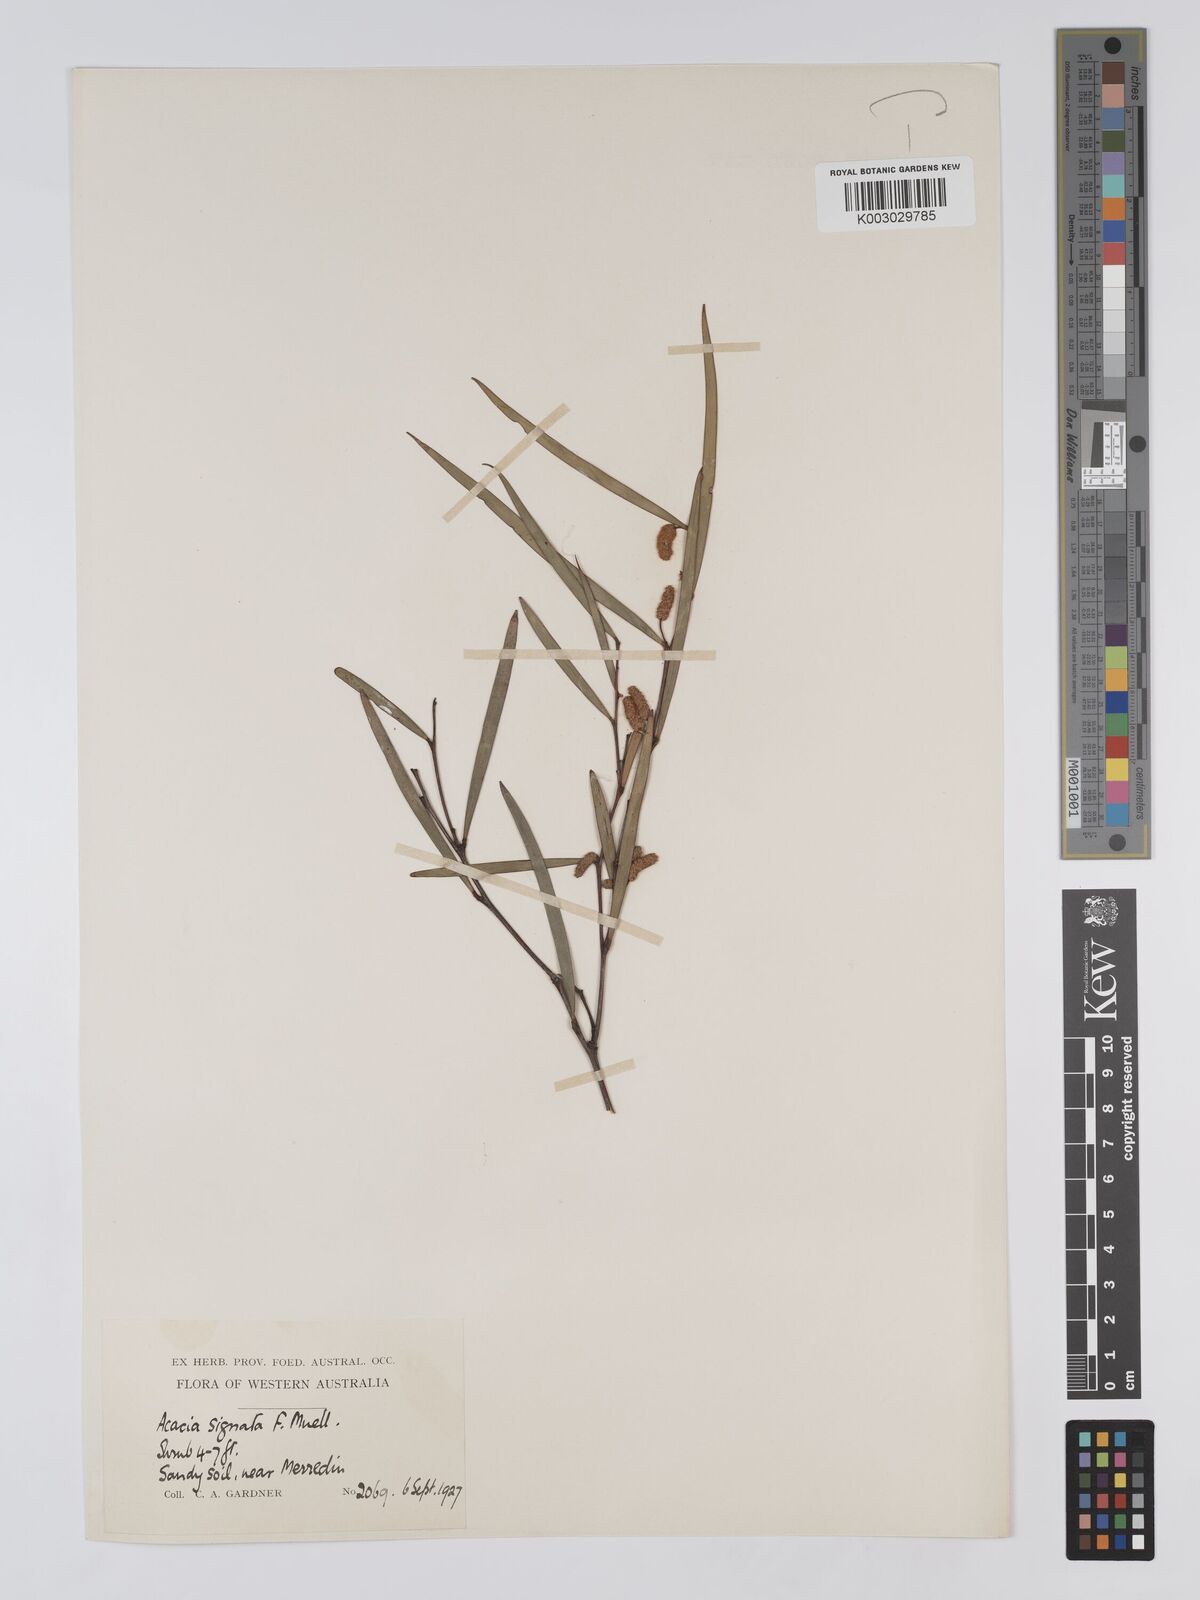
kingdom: Plantae
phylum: Tracheophyta
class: Magnoliopsida
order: Fabales
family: Fabaceae
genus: Acacia
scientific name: Acacia signata
